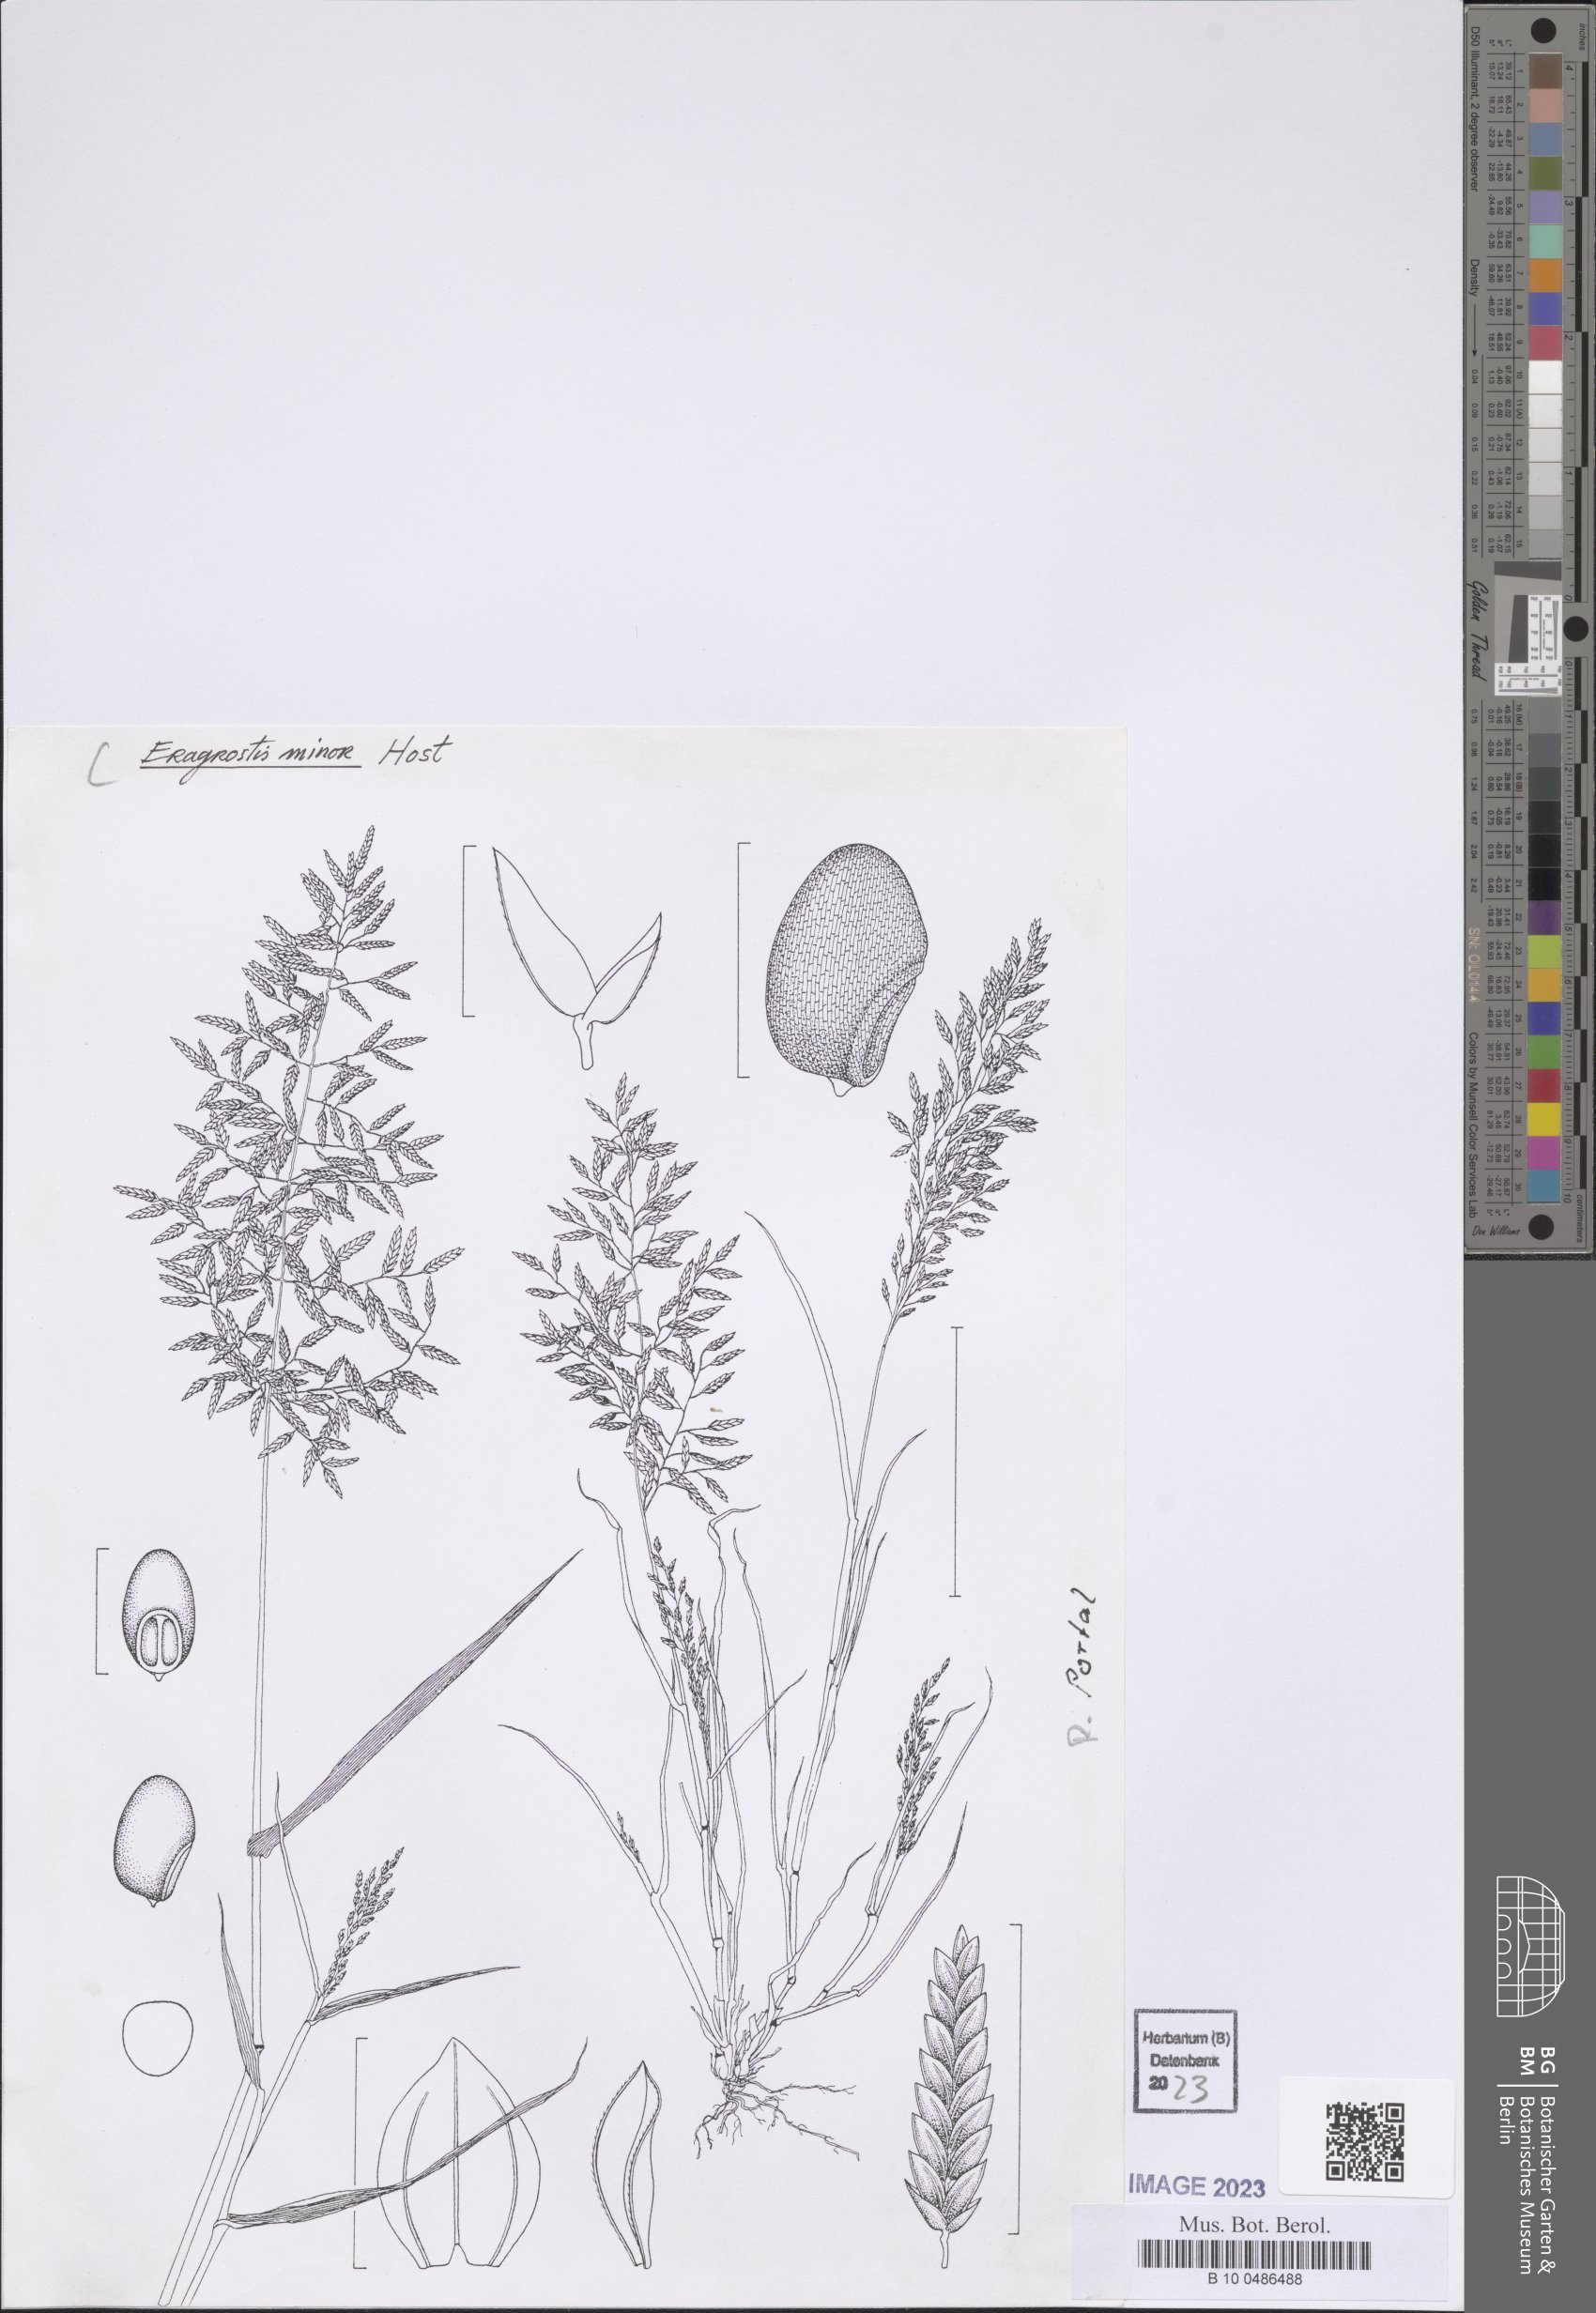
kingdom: Plantae
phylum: Tracheophyta
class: Liliopsida
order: Poales
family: Poaceae
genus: Eragrostis
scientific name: Eragrostis minor
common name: Small love-grass
